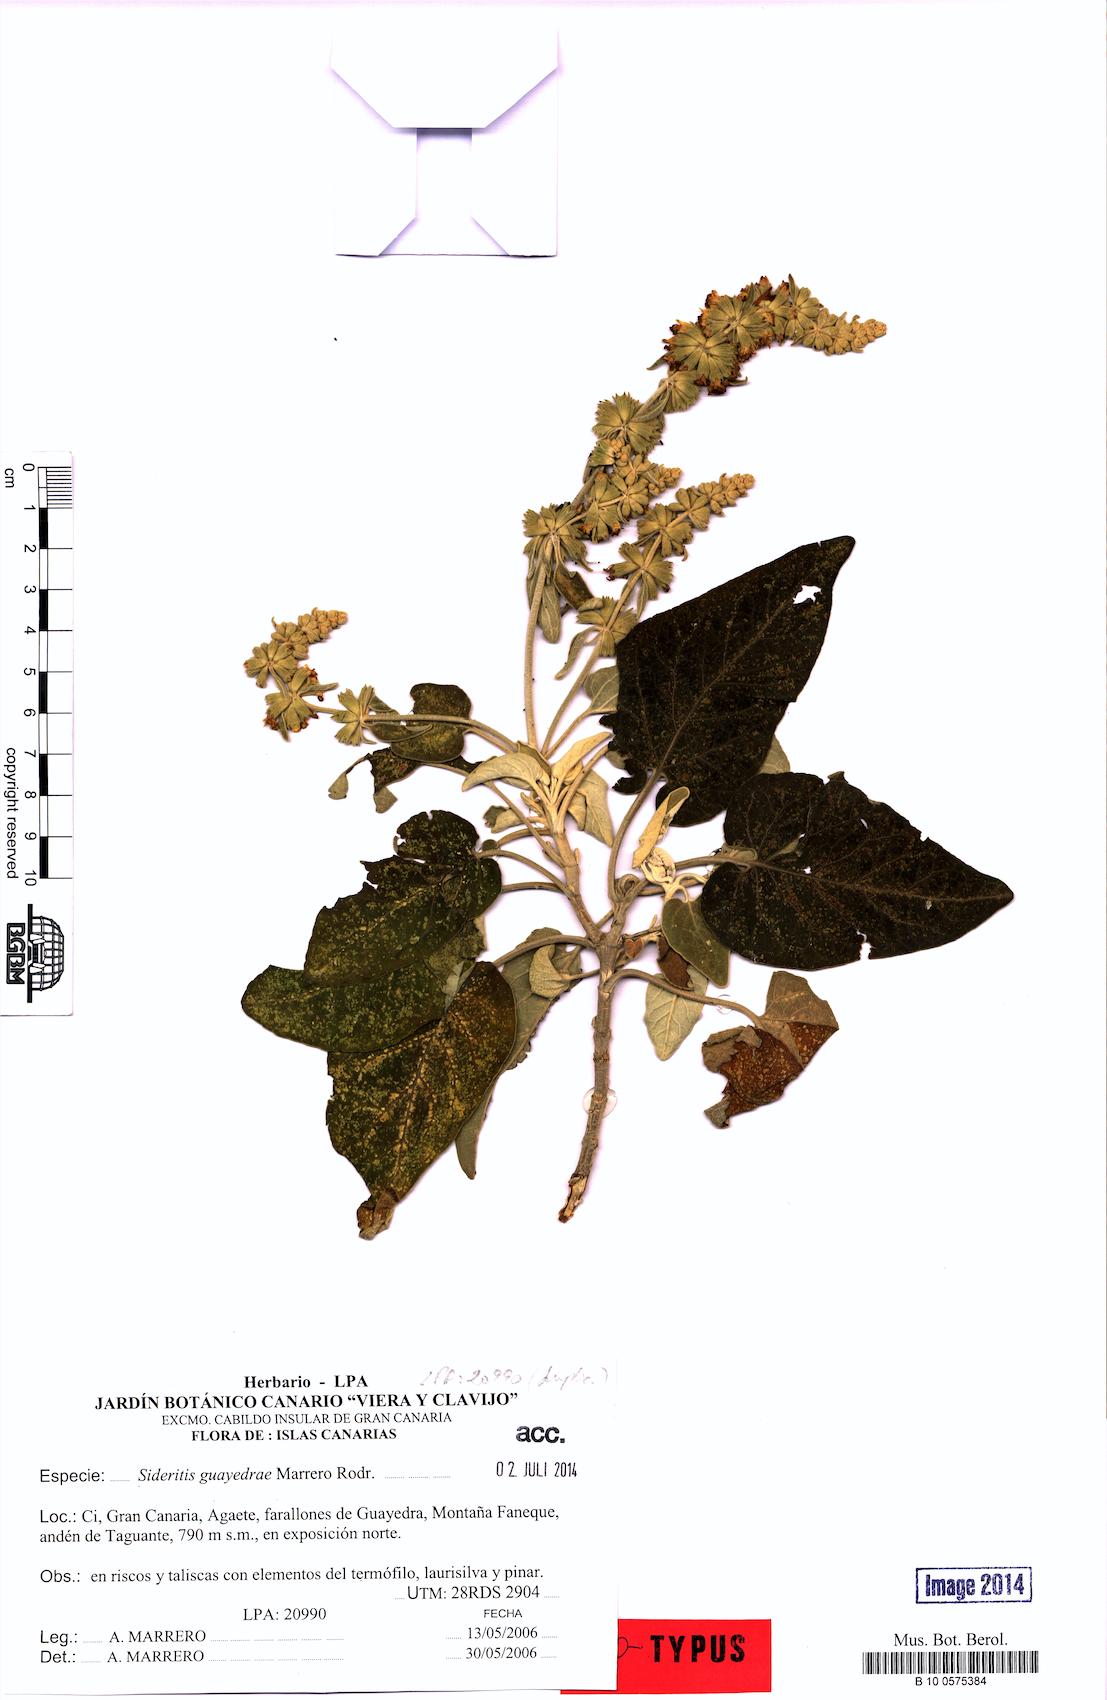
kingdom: Plantae
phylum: Tracheophyta
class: Magnoliopsida
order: Lamiales
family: Lamiaceae
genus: Sideritis
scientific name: Sideritis guayedrae
